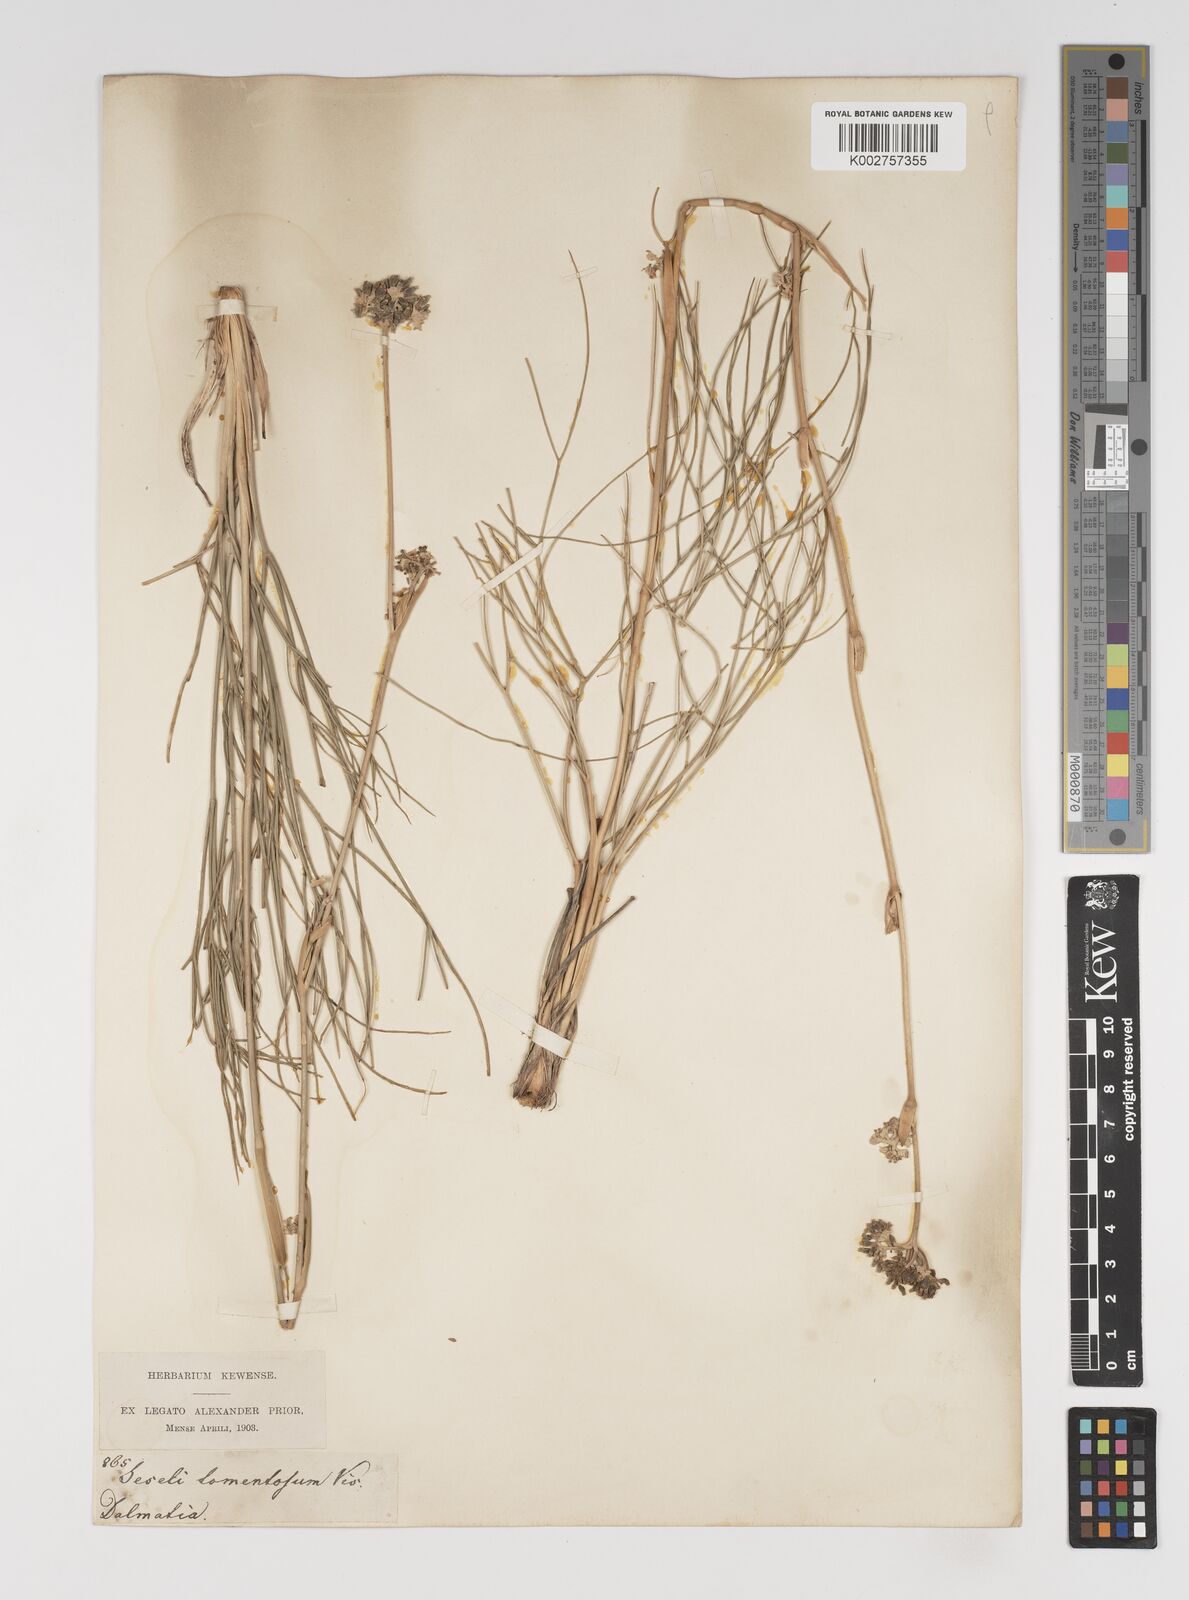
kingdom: Plantae
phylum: Tracheophyta
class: Magnoliopsida
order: Apiales
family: Apiaceae
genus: Cyathoselinum
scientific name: Cyathoselinum tomentosum
